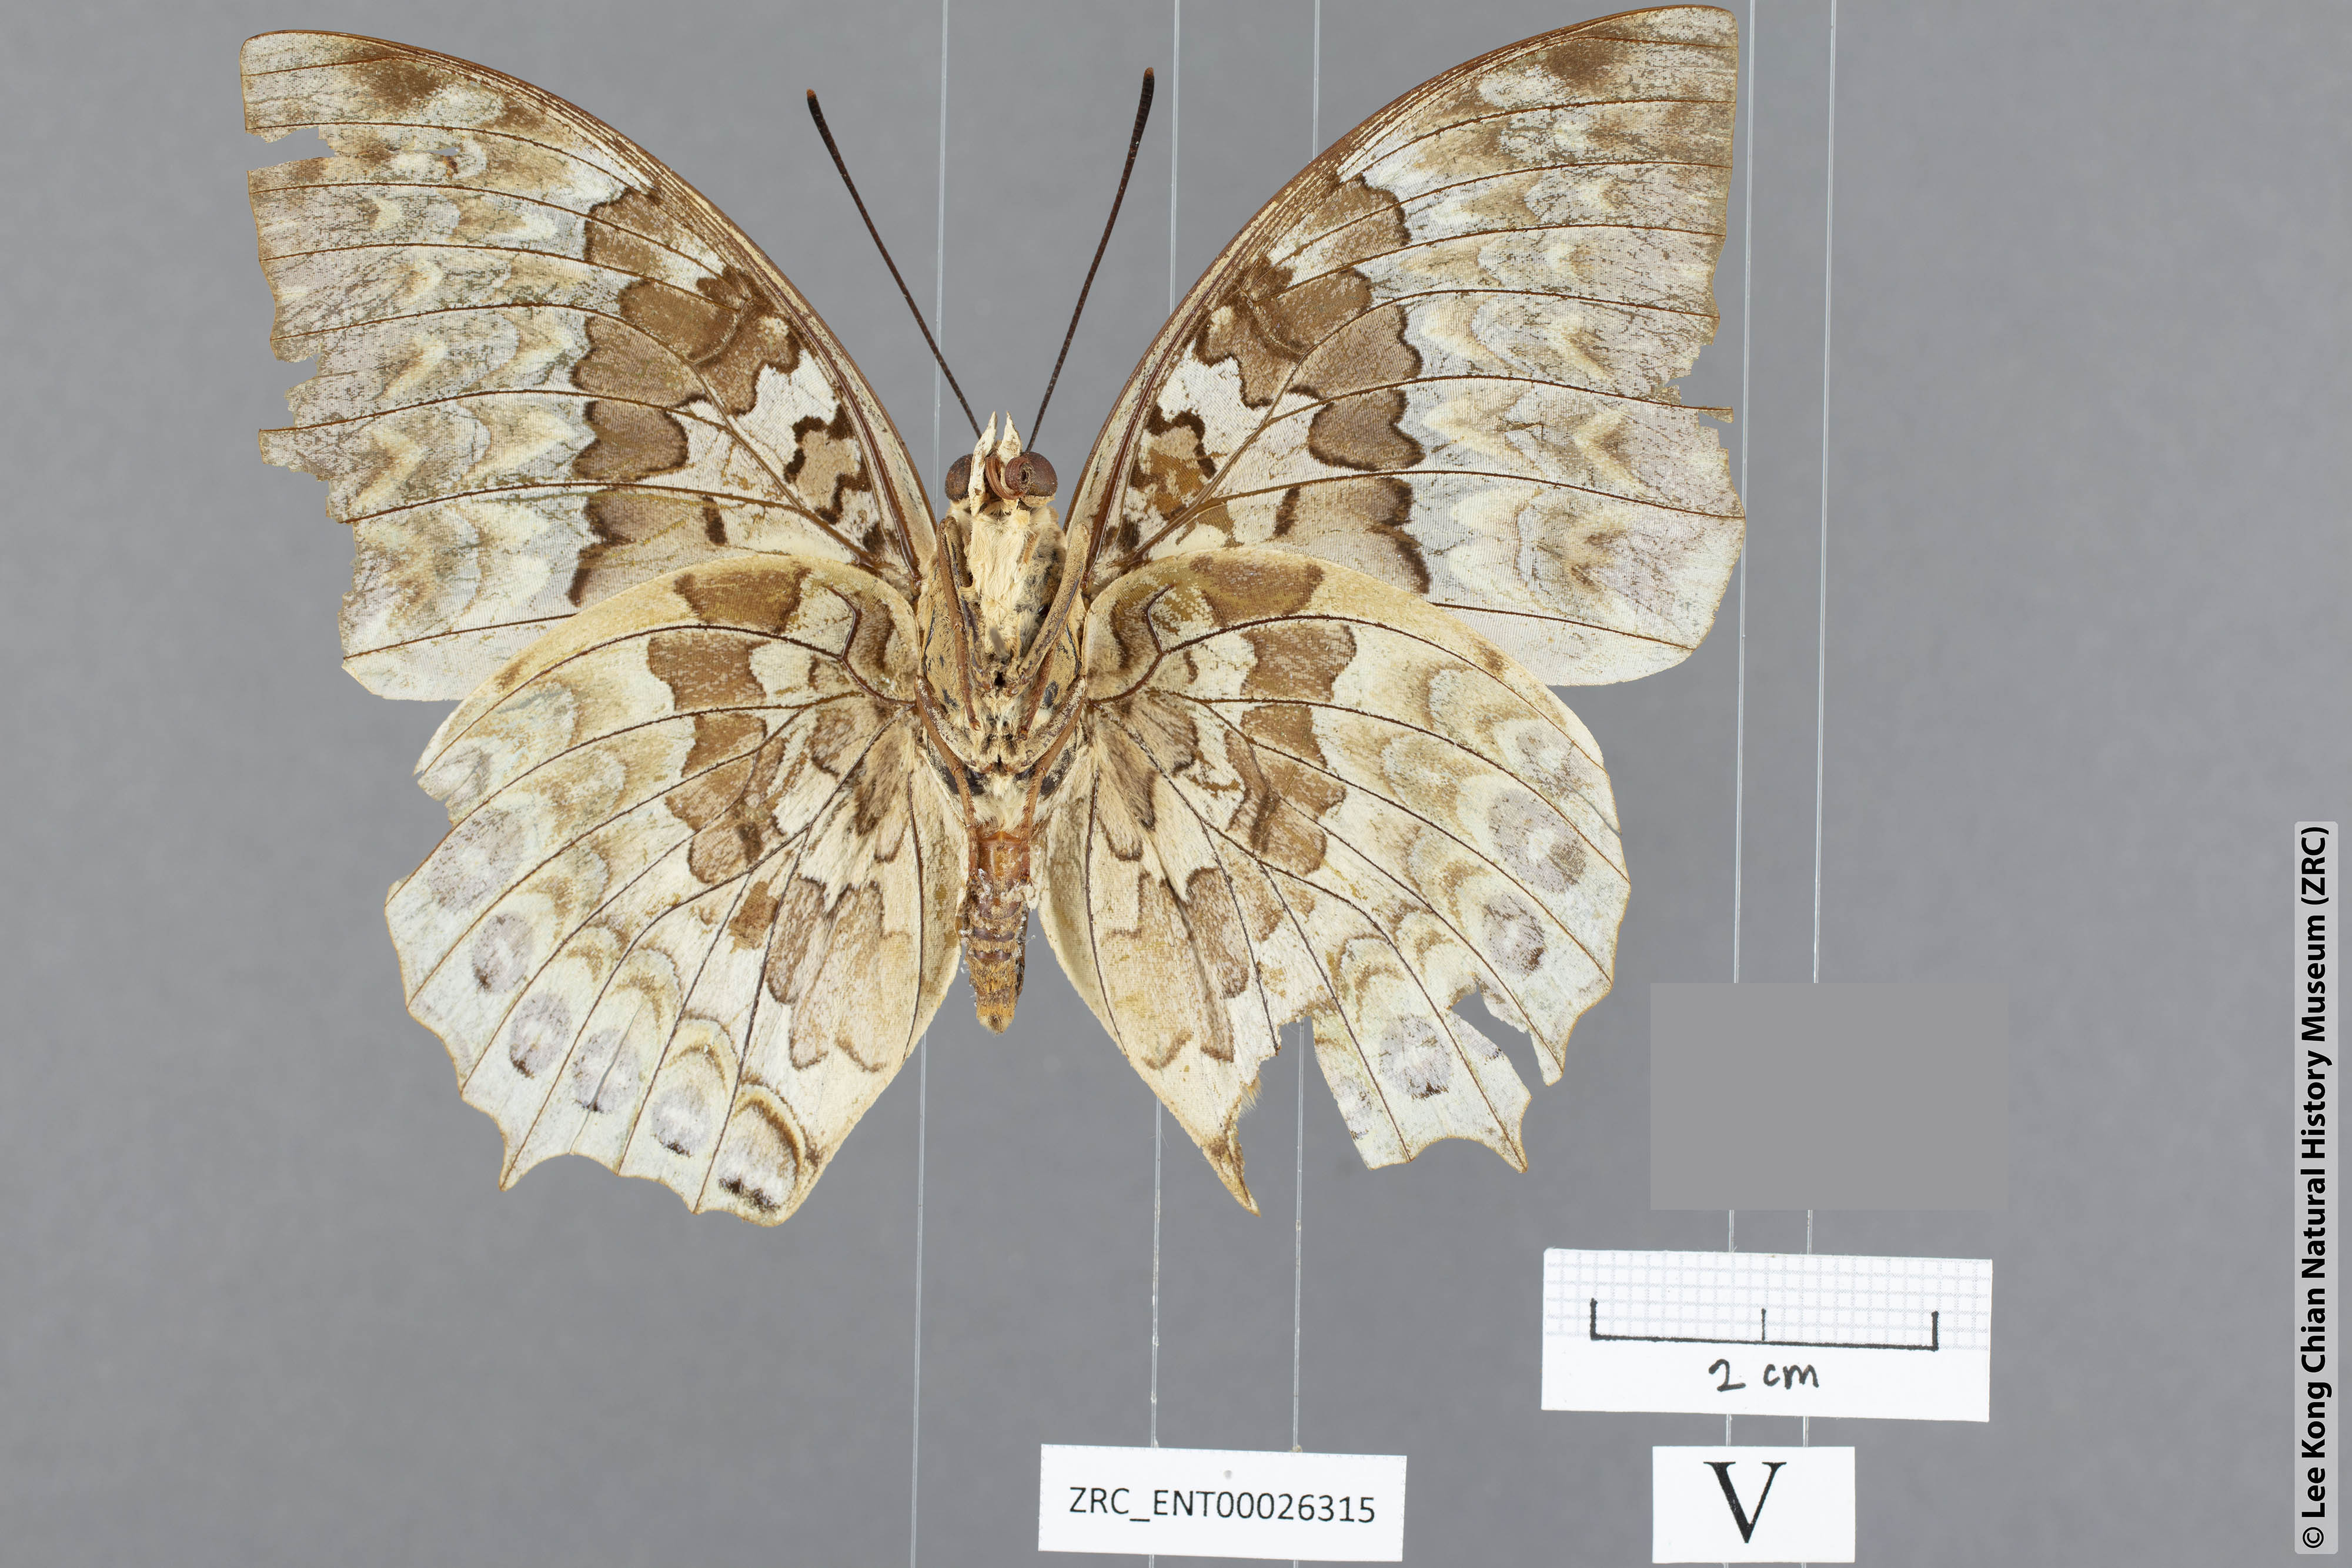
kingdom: Animalia
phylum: Arthropoda
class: Insecta
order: Lepidoptera
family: Nymphalidae
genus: Charaxes
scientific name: Charaxes durnfordi
